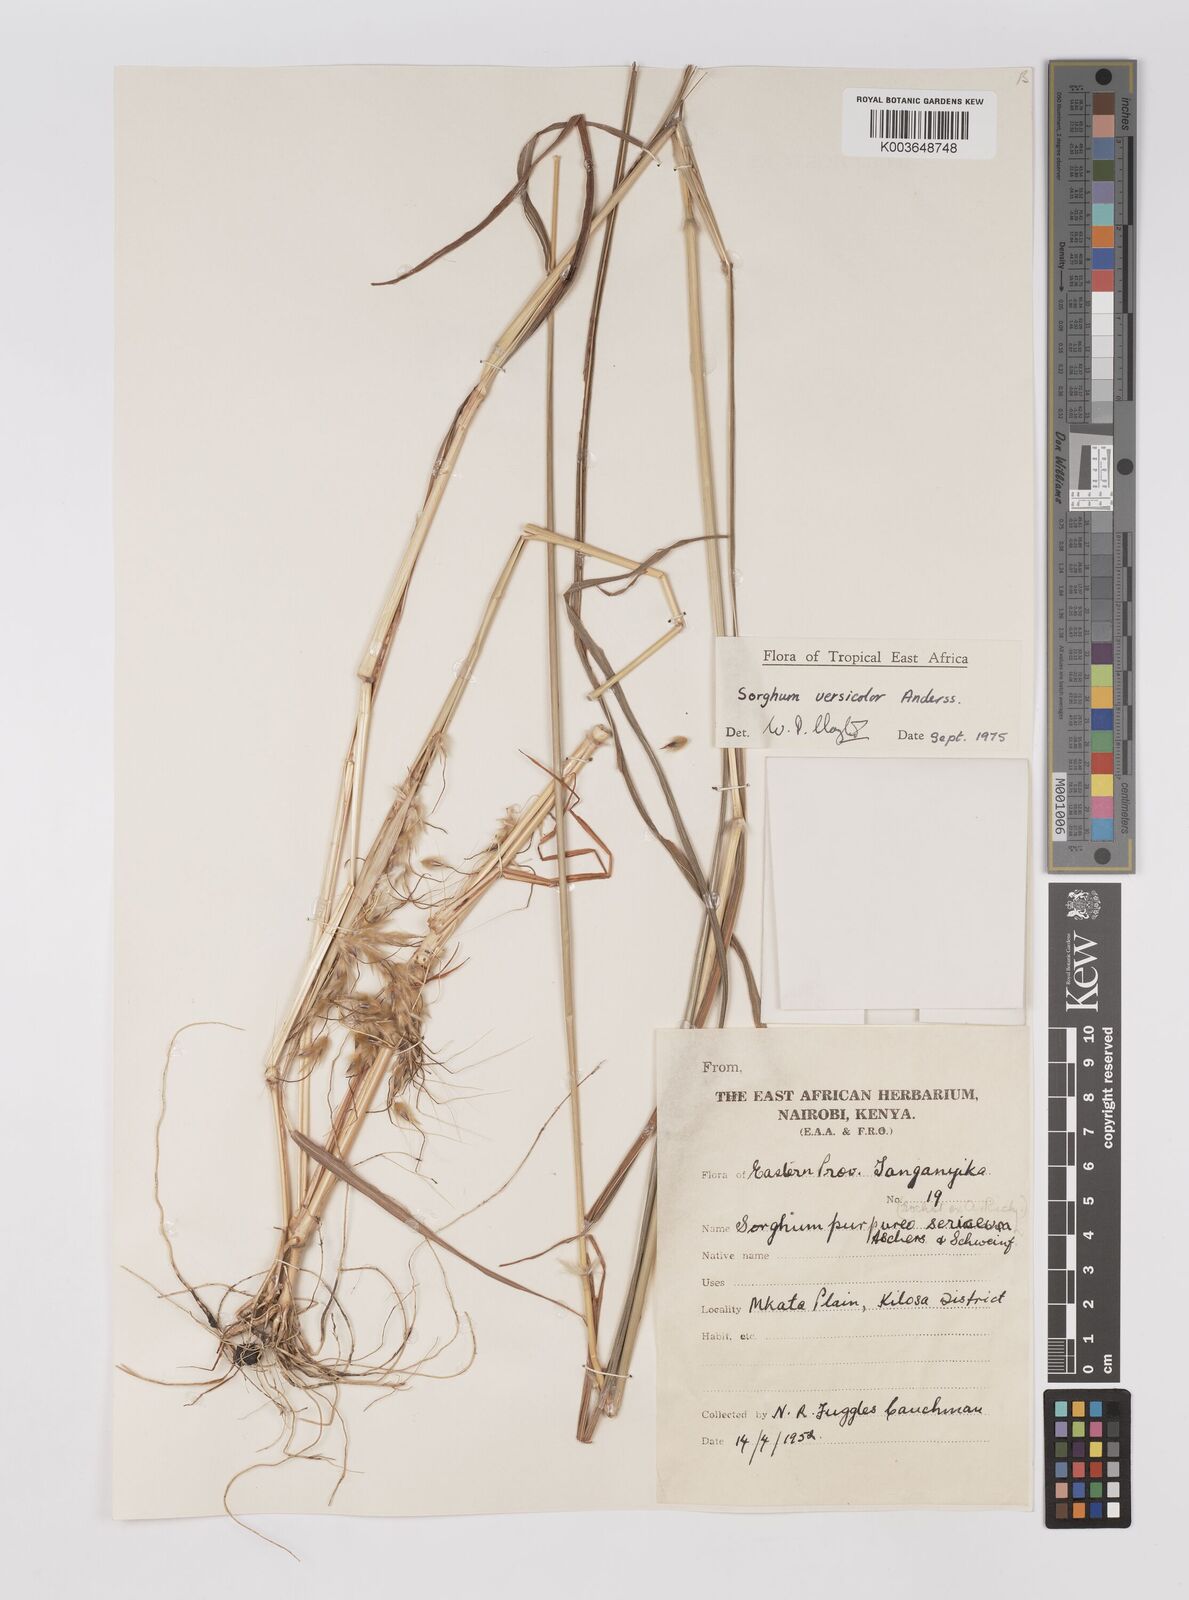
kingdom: Plantae
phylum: Tracheophyta
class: Liliopsida
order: Poales
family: Poaceae
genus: Sarga
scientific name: Sarga versicolor
